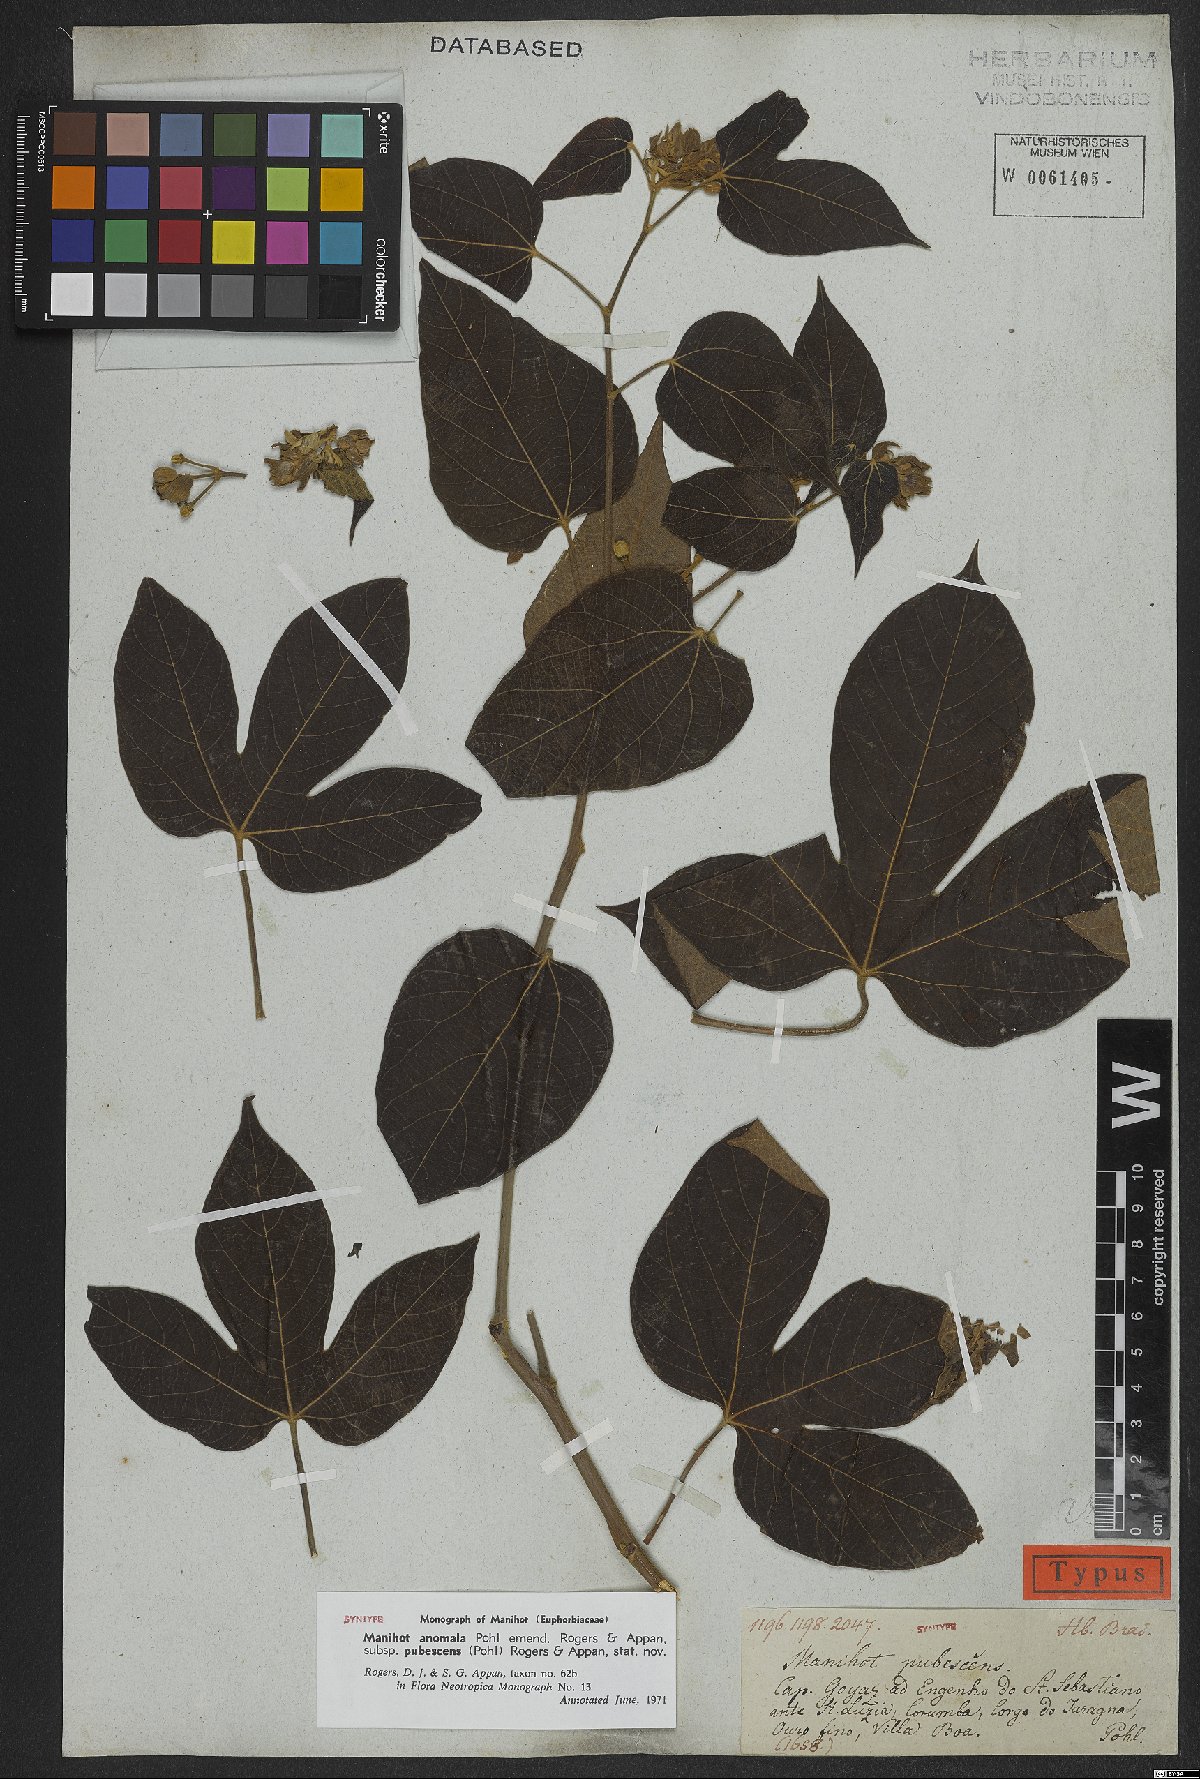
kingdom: Plantae
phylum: Tracheophyta
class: Magnoliopsida
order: Malpighiales
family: Euphorbiaceae
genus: Manihot
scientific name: Manihot anomala
